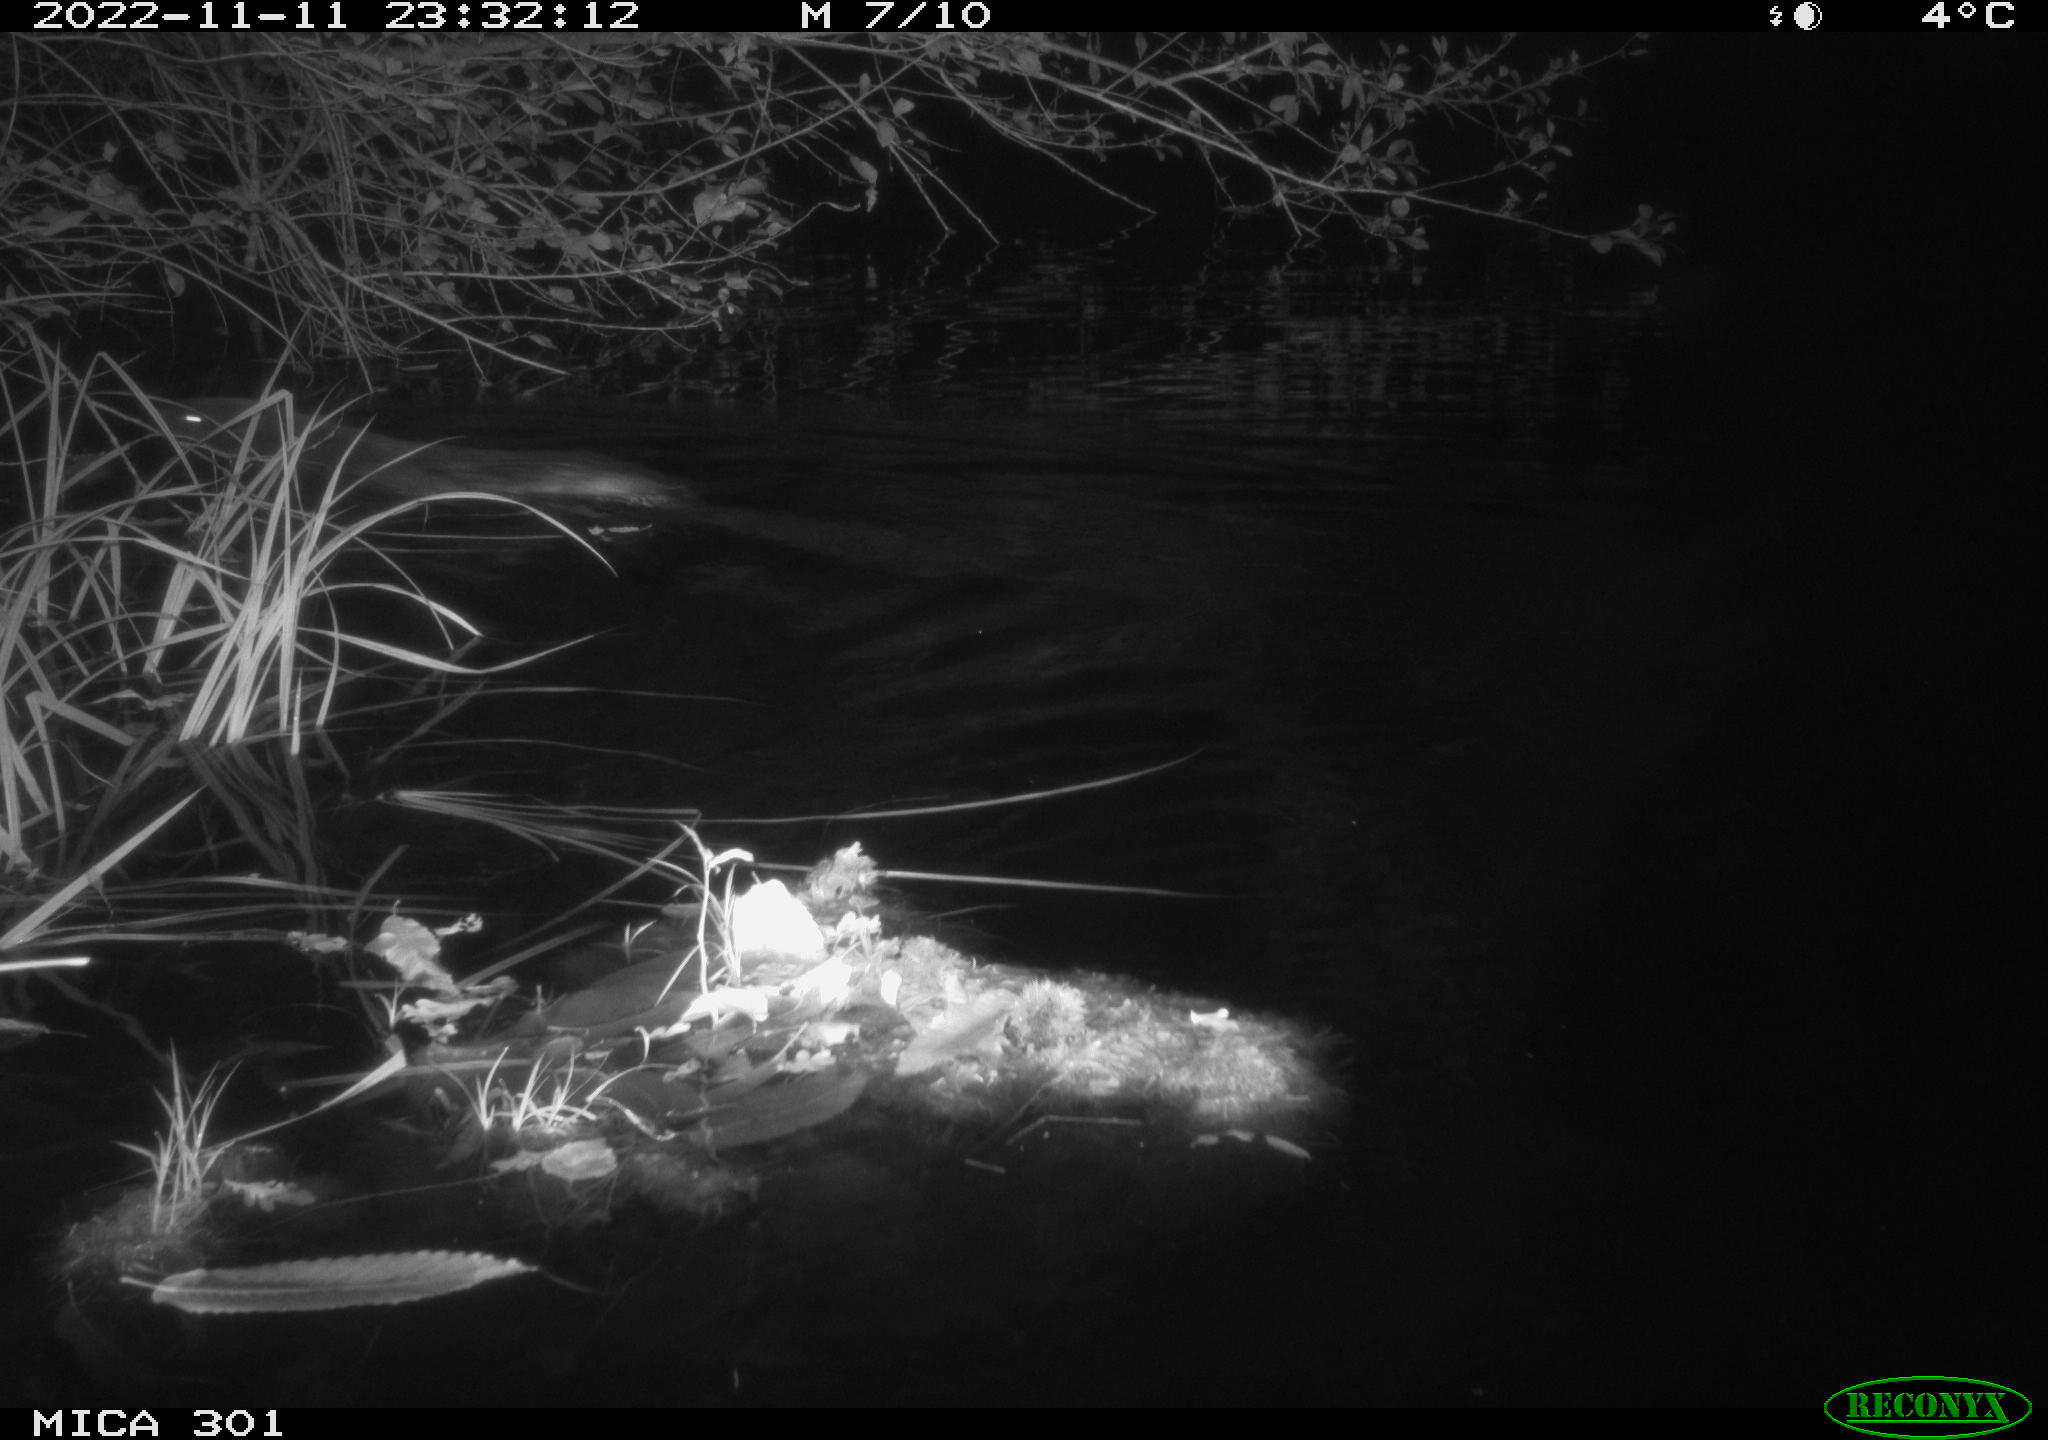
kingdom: Animalia
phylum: Chordata
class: Mammalia
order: Rodentia
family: Castoridae
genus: Castor
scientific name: Castor fiber
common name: Eurasian beaver
